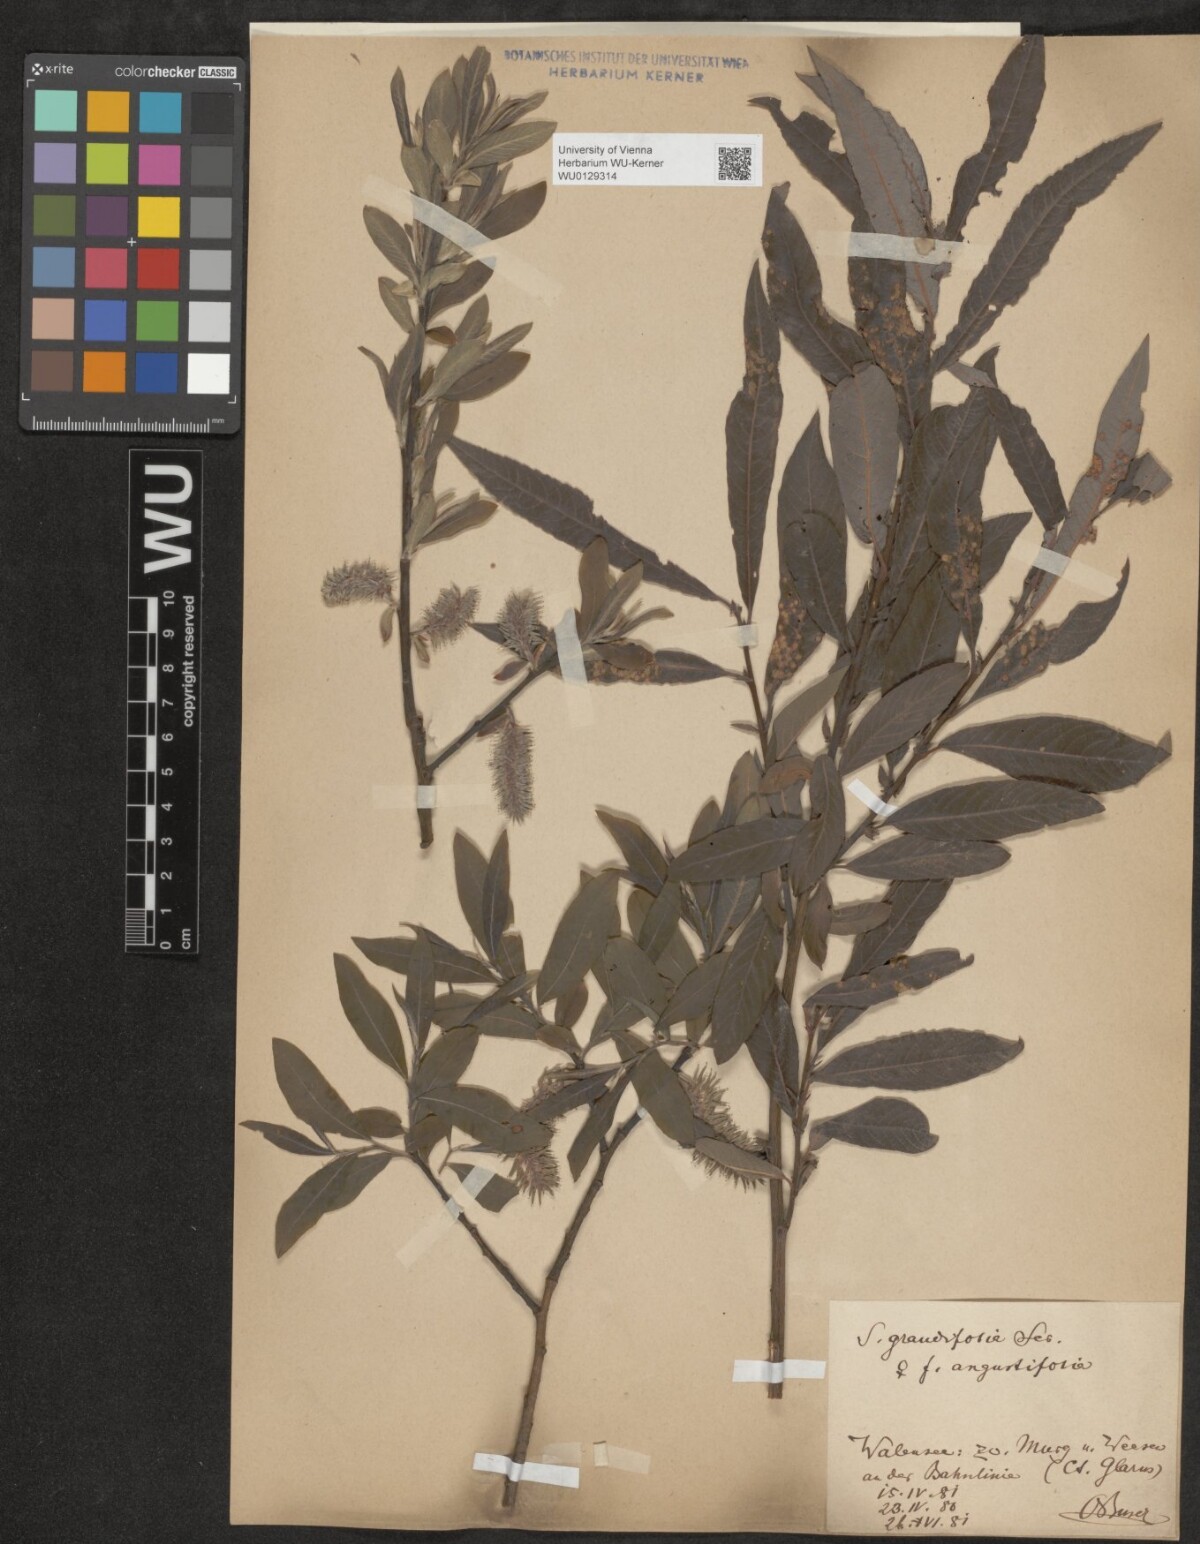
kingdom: Plantae
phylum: Tracheophyta
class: Magnoliopsida
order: Malpighiales
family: Salicaceae
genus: Salix
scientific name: Salix appendiculata
